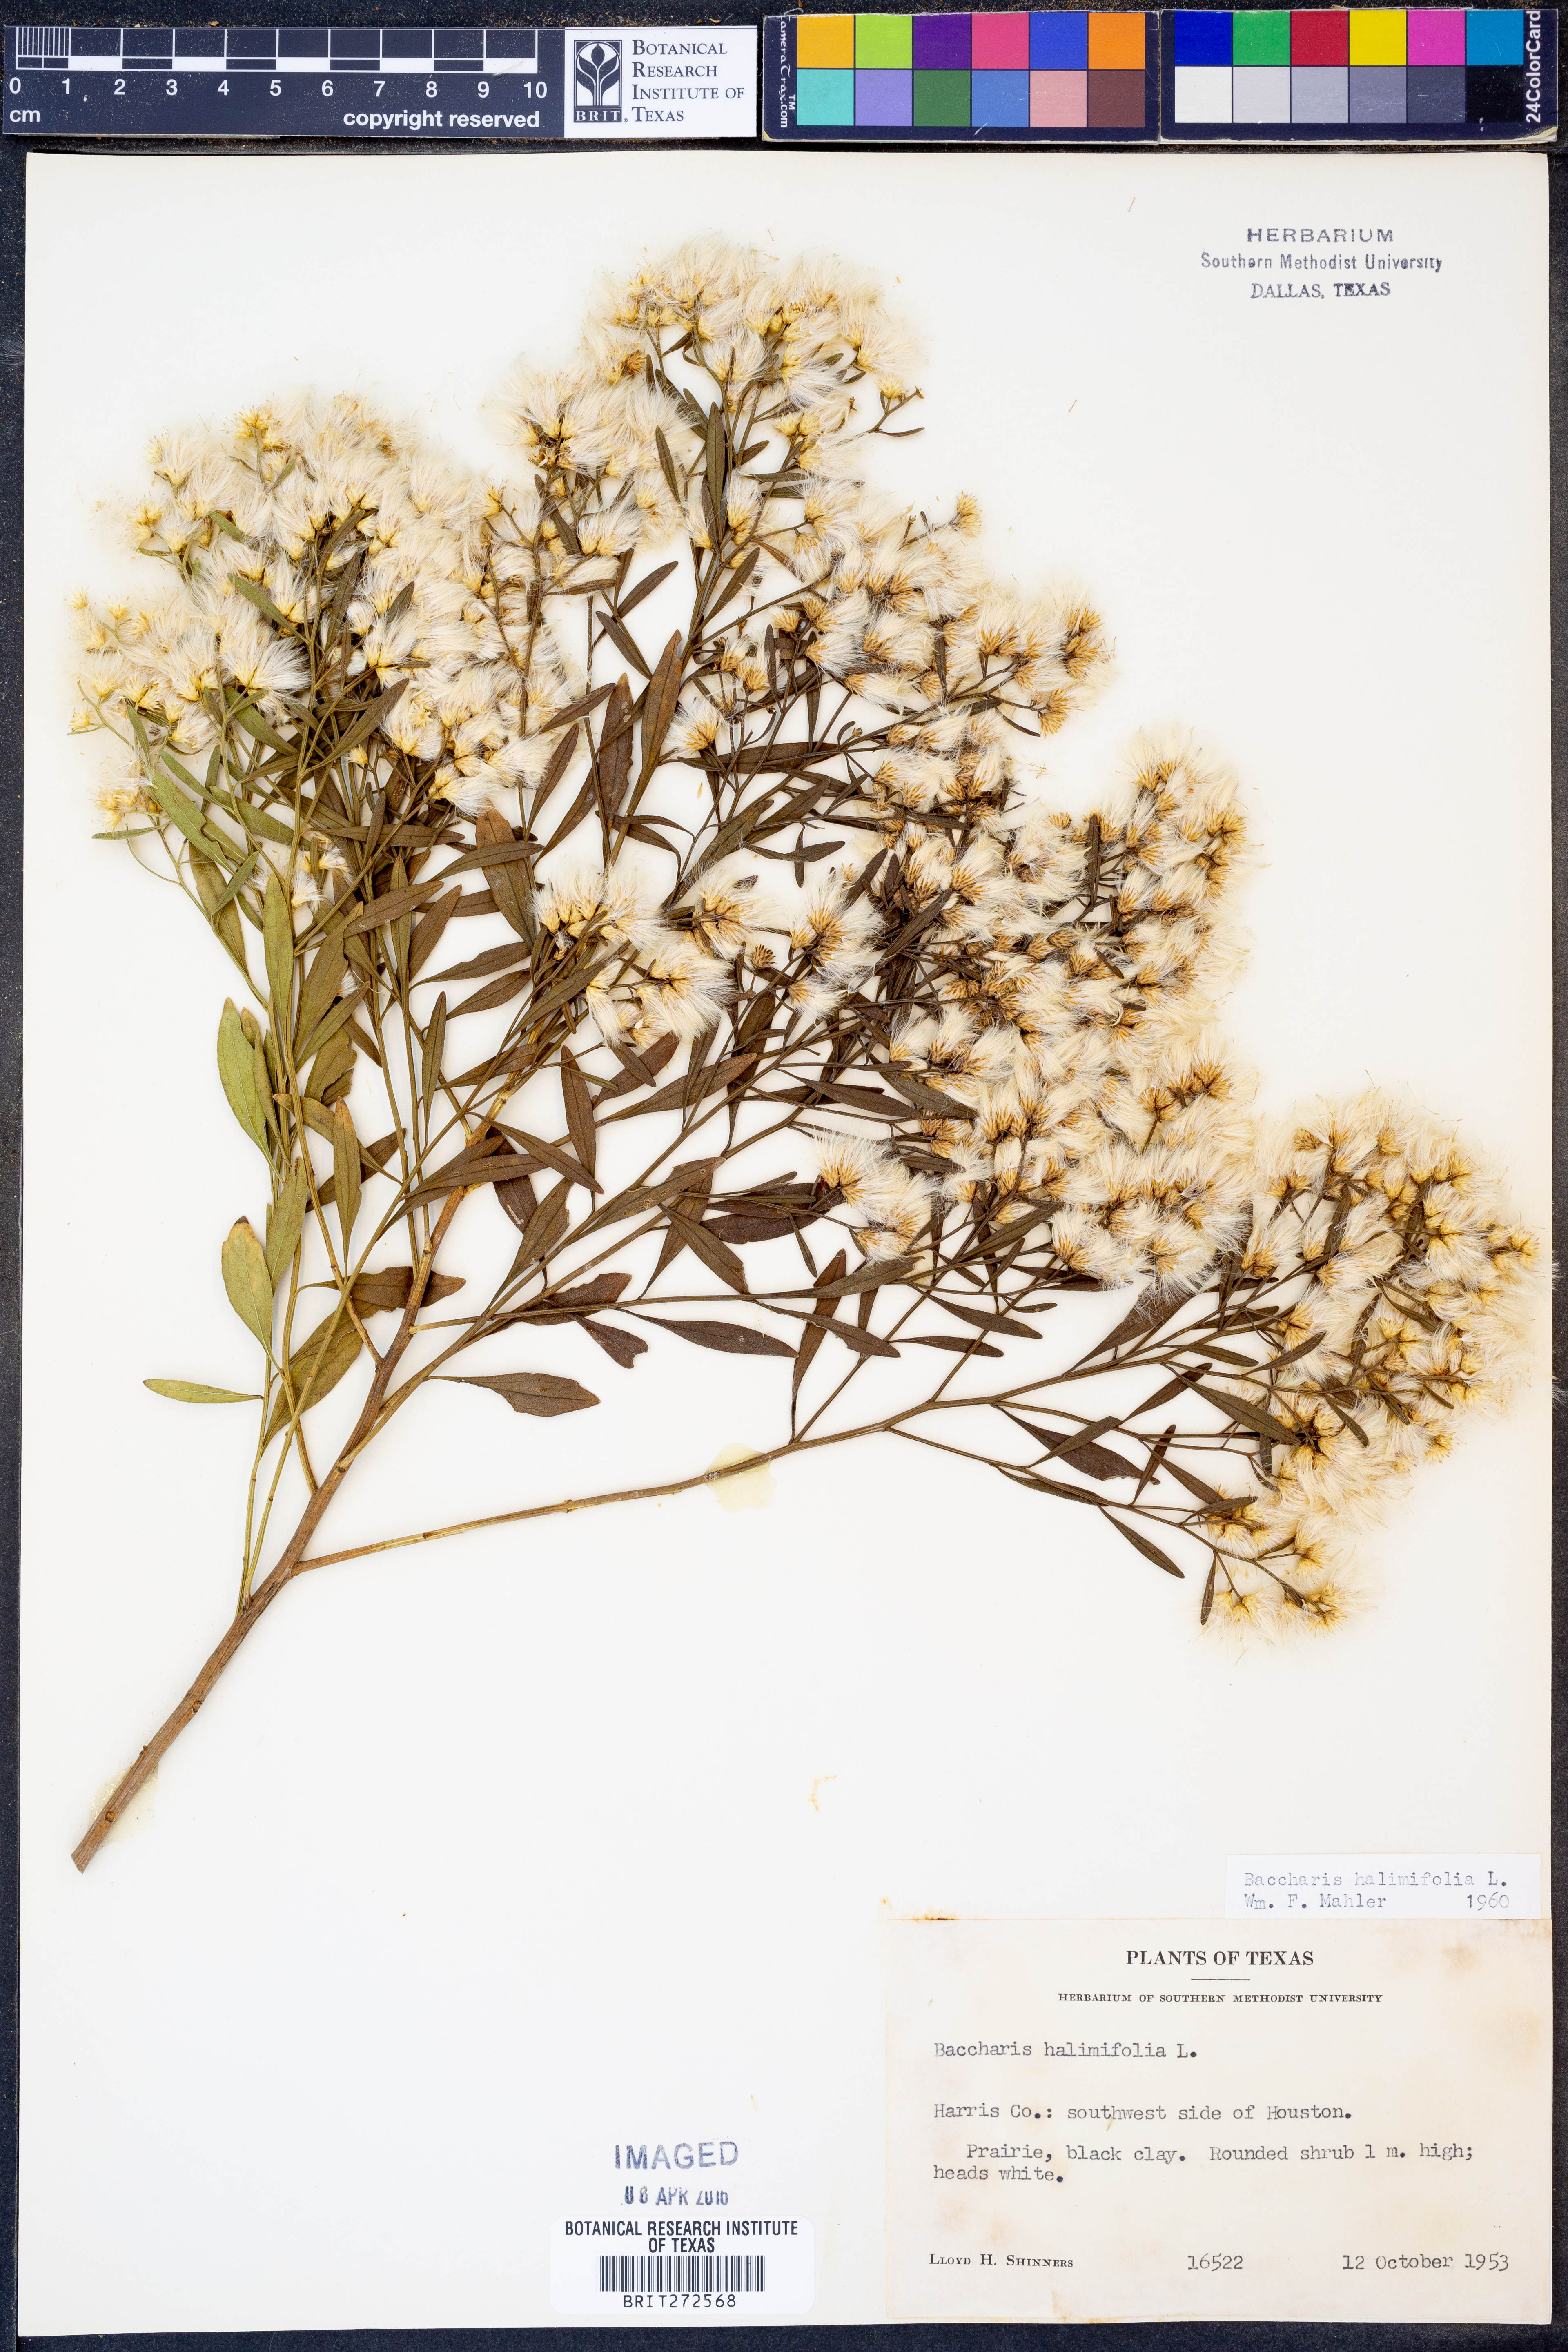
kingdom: Plantae
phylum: Tracheophyta
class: Magnoliopsida
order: Asterales
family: Asteraceae
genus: Nidorella
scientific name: Nidorella ivifolia
